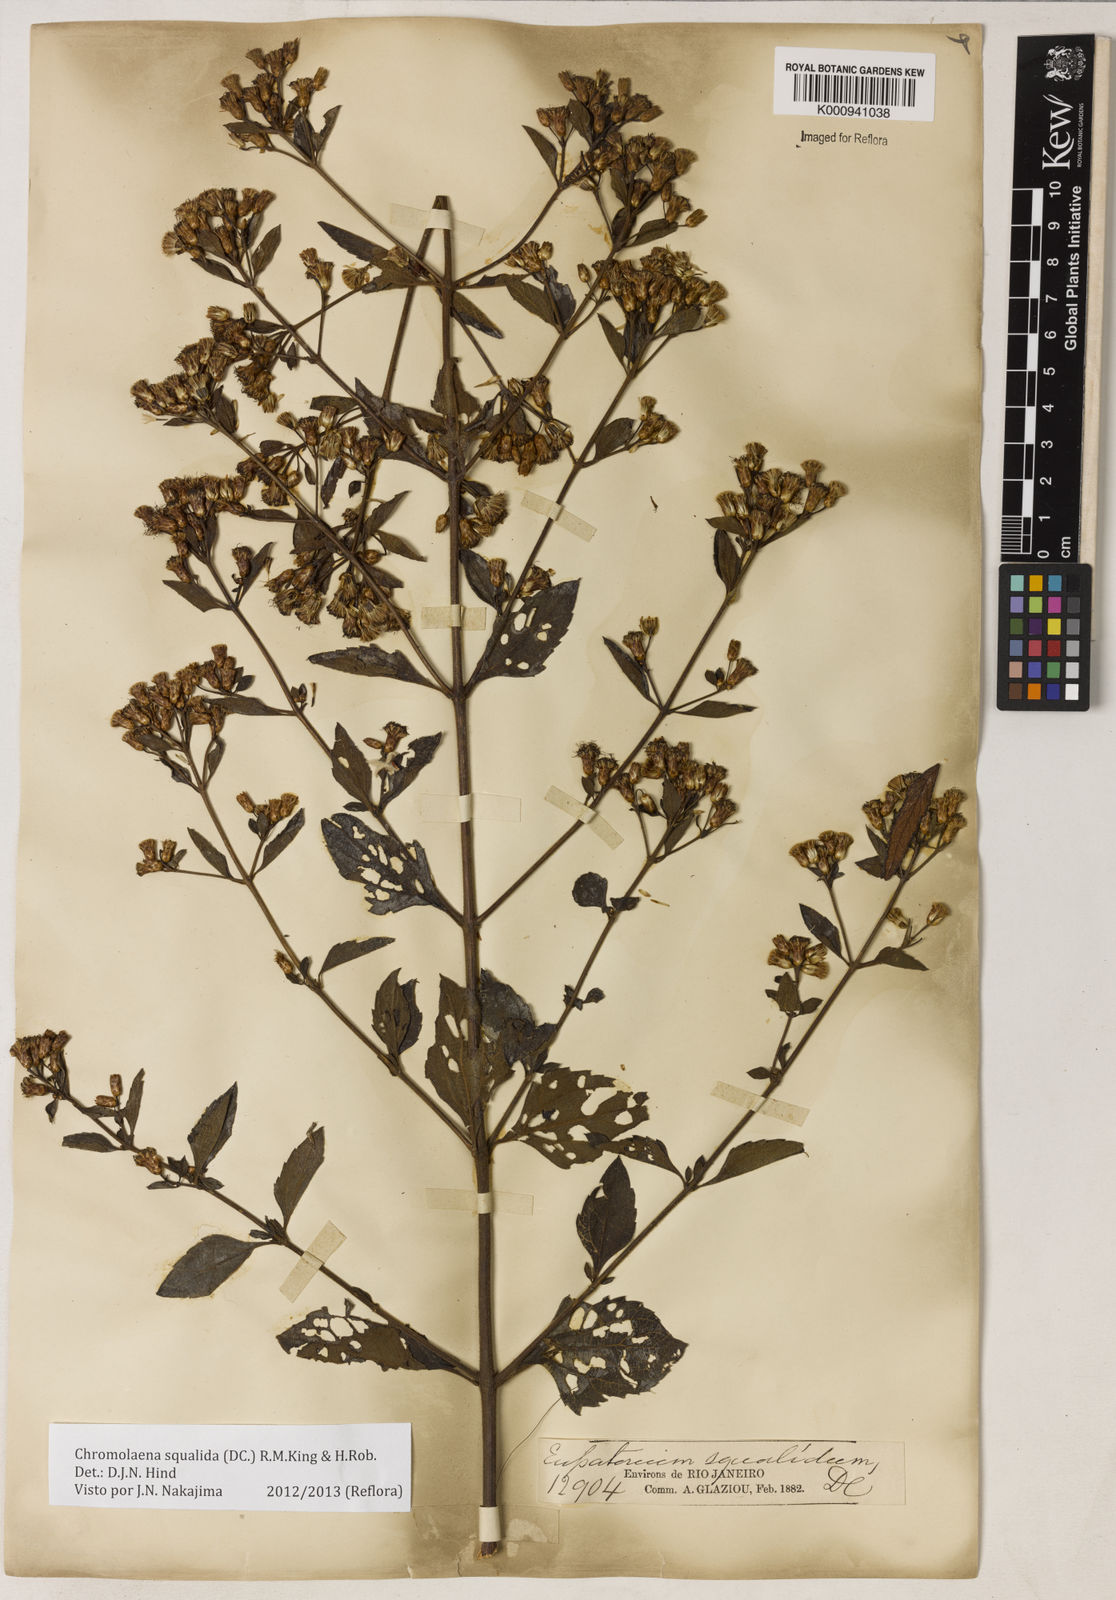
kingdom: Plantae
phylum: Tracheophyta
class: Magnoliopsida
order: Asterales
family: Asteraceae
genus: Chromolaena
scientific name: Chromolaena squalida
